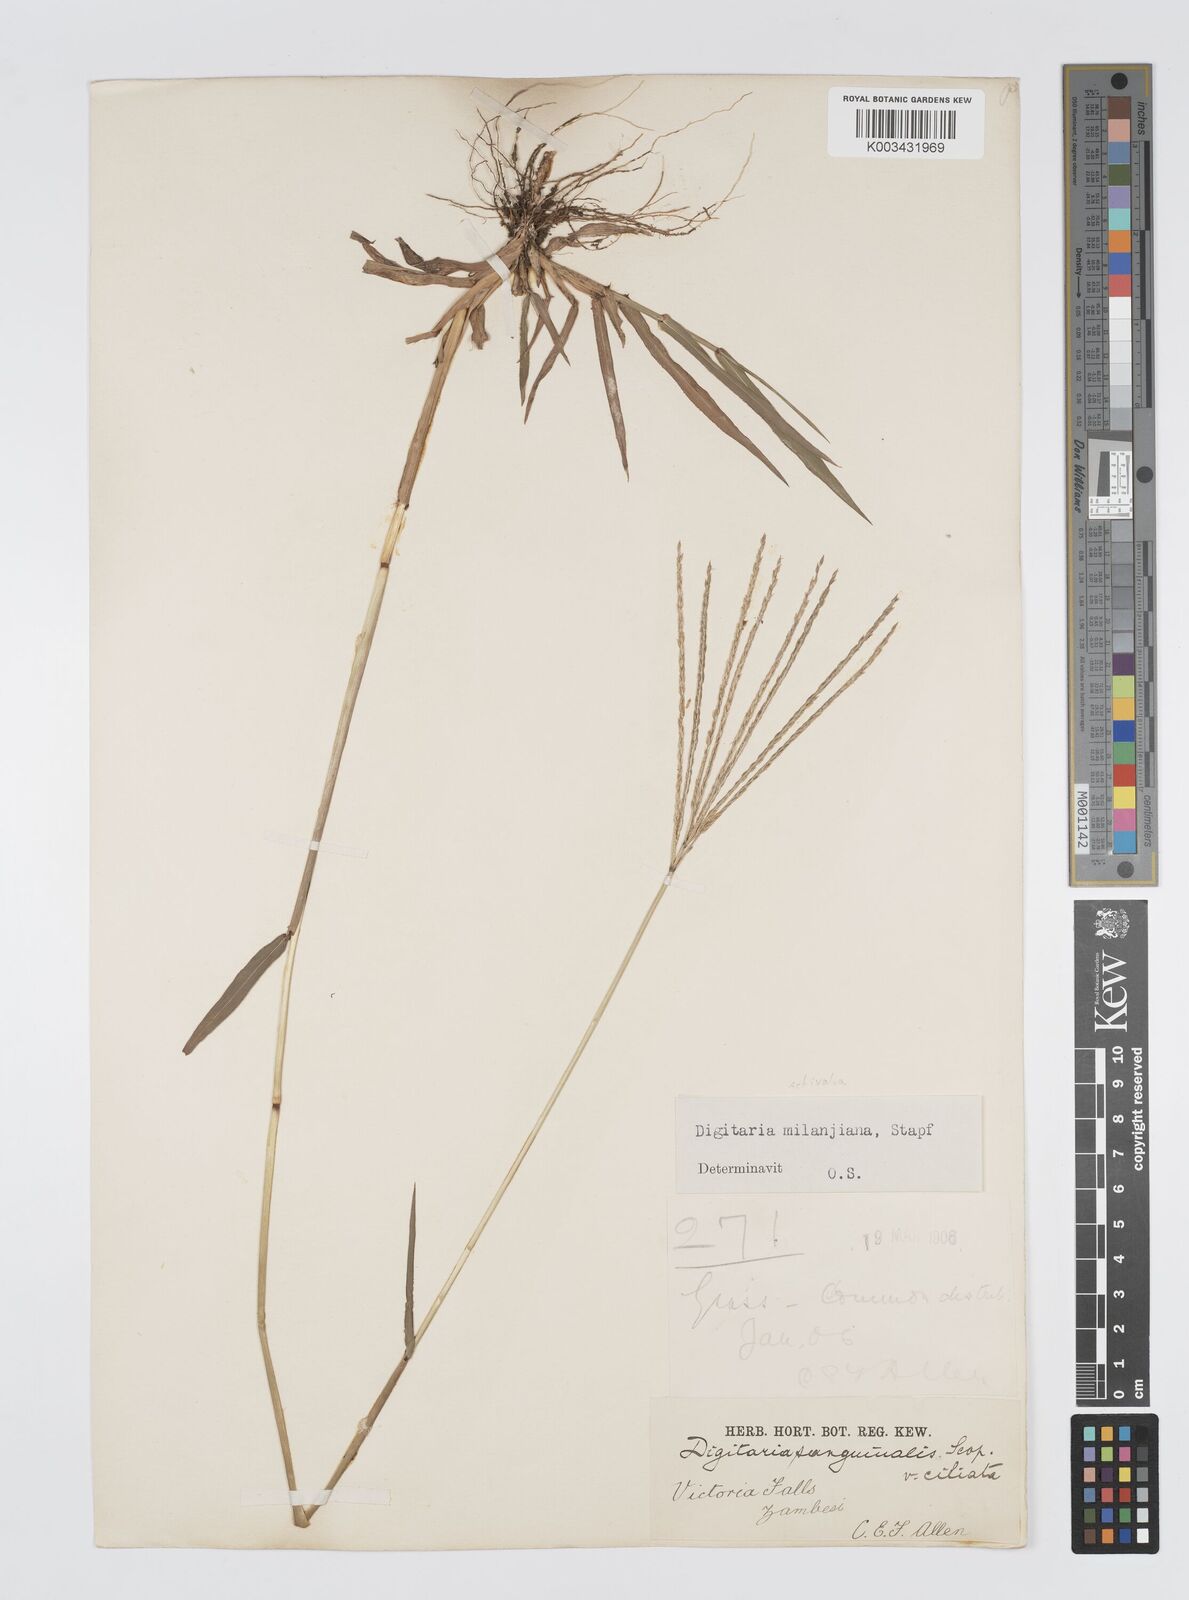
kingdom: Plantae
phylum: Tracheophyta
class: Liliopsida
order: Poales
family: Poaceae
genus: Digitaria
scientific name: Digitaria milanjiana
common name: Madagascar crabgrass
